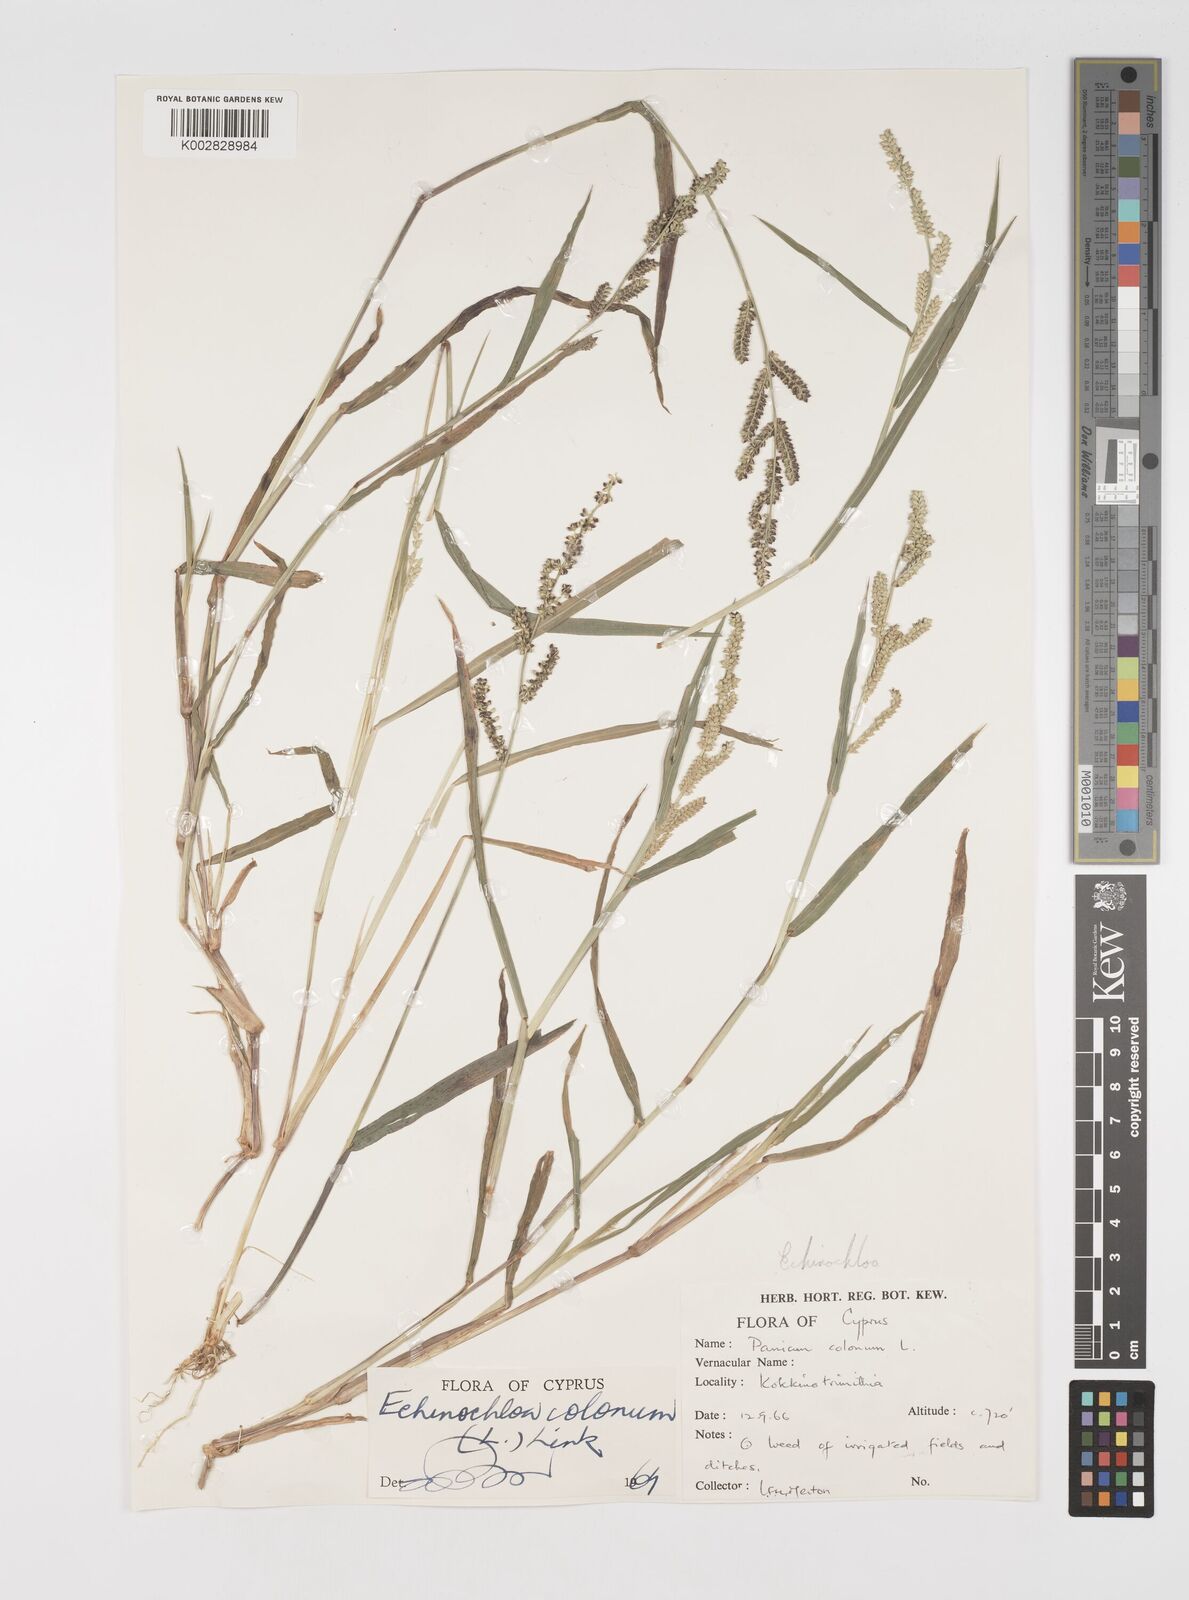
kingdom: Plantae
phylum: Tracheophyta
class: Liliopsida
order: Poales
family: Poaceae
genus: Echinochloa
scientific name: Echinochloa colonum
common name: Jungle rice
